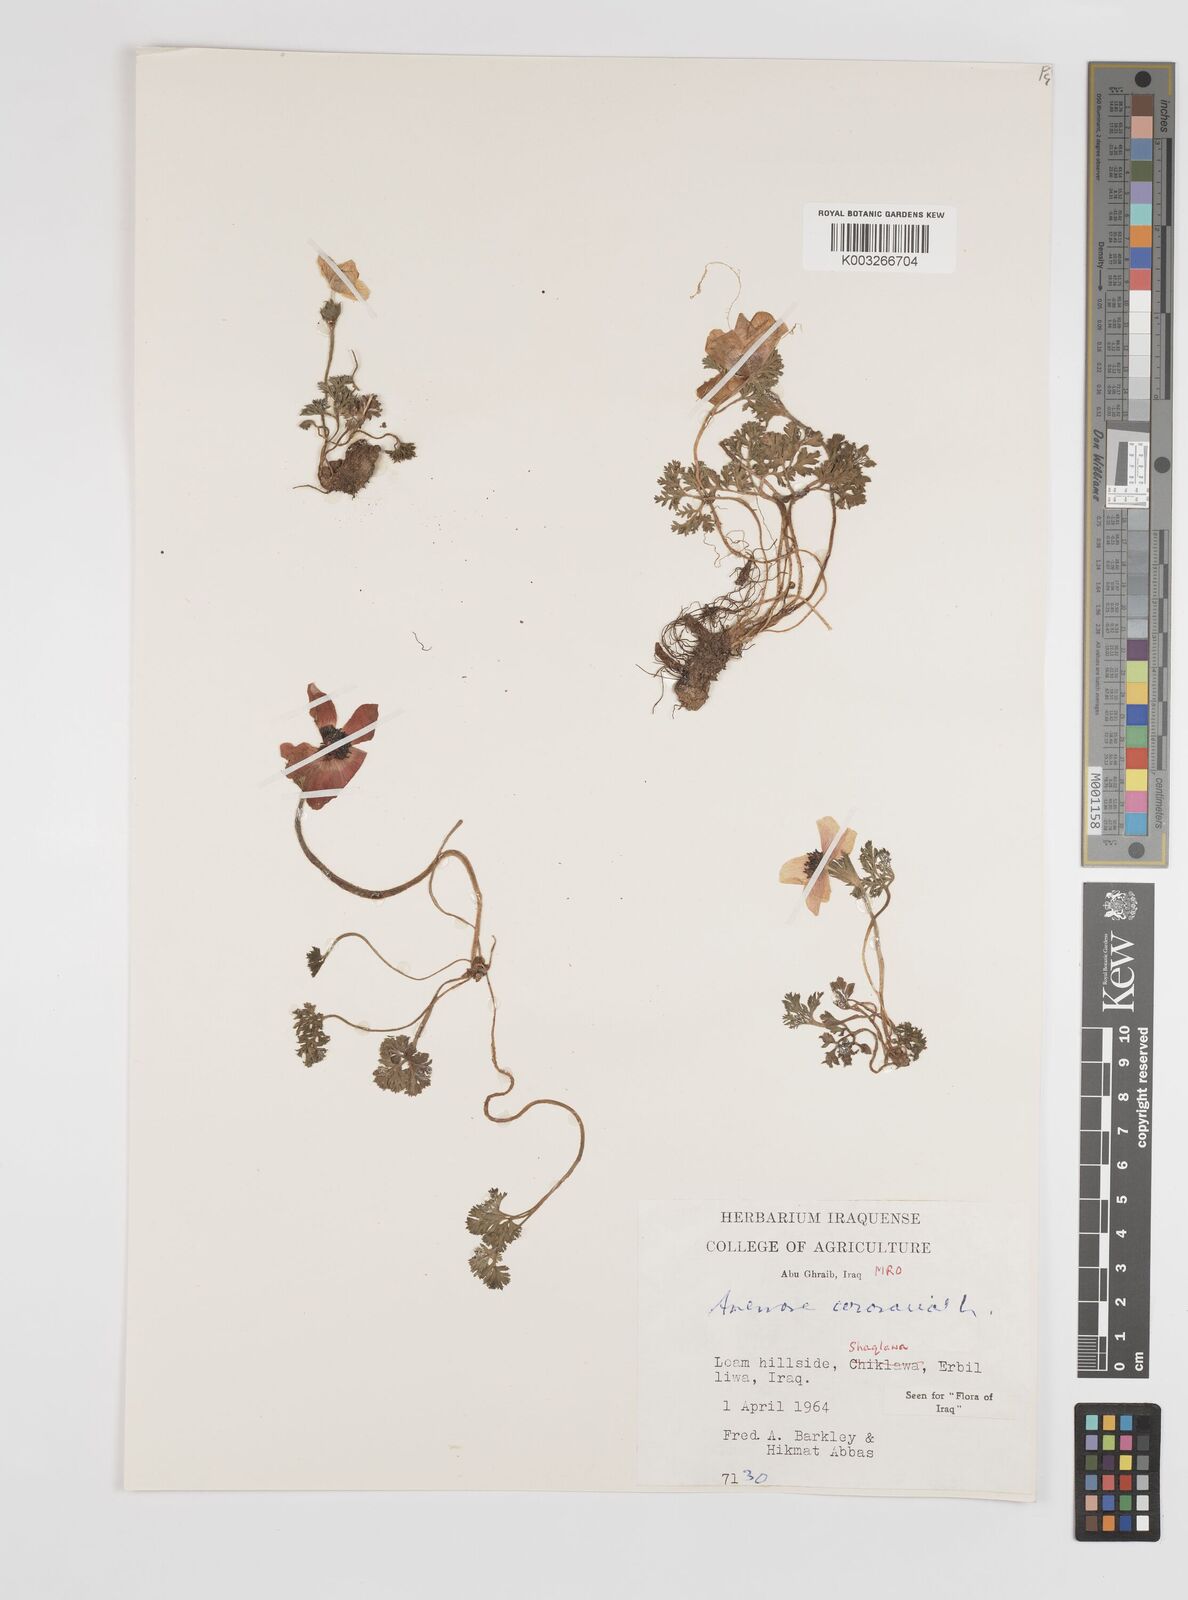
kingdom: Plantae
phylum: Tracheophyta
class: Magnoliopsida
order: Ranunculales
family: Ranunculaceae
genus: Anemone
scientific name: Anemone coronaria
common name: Poppy anemone
